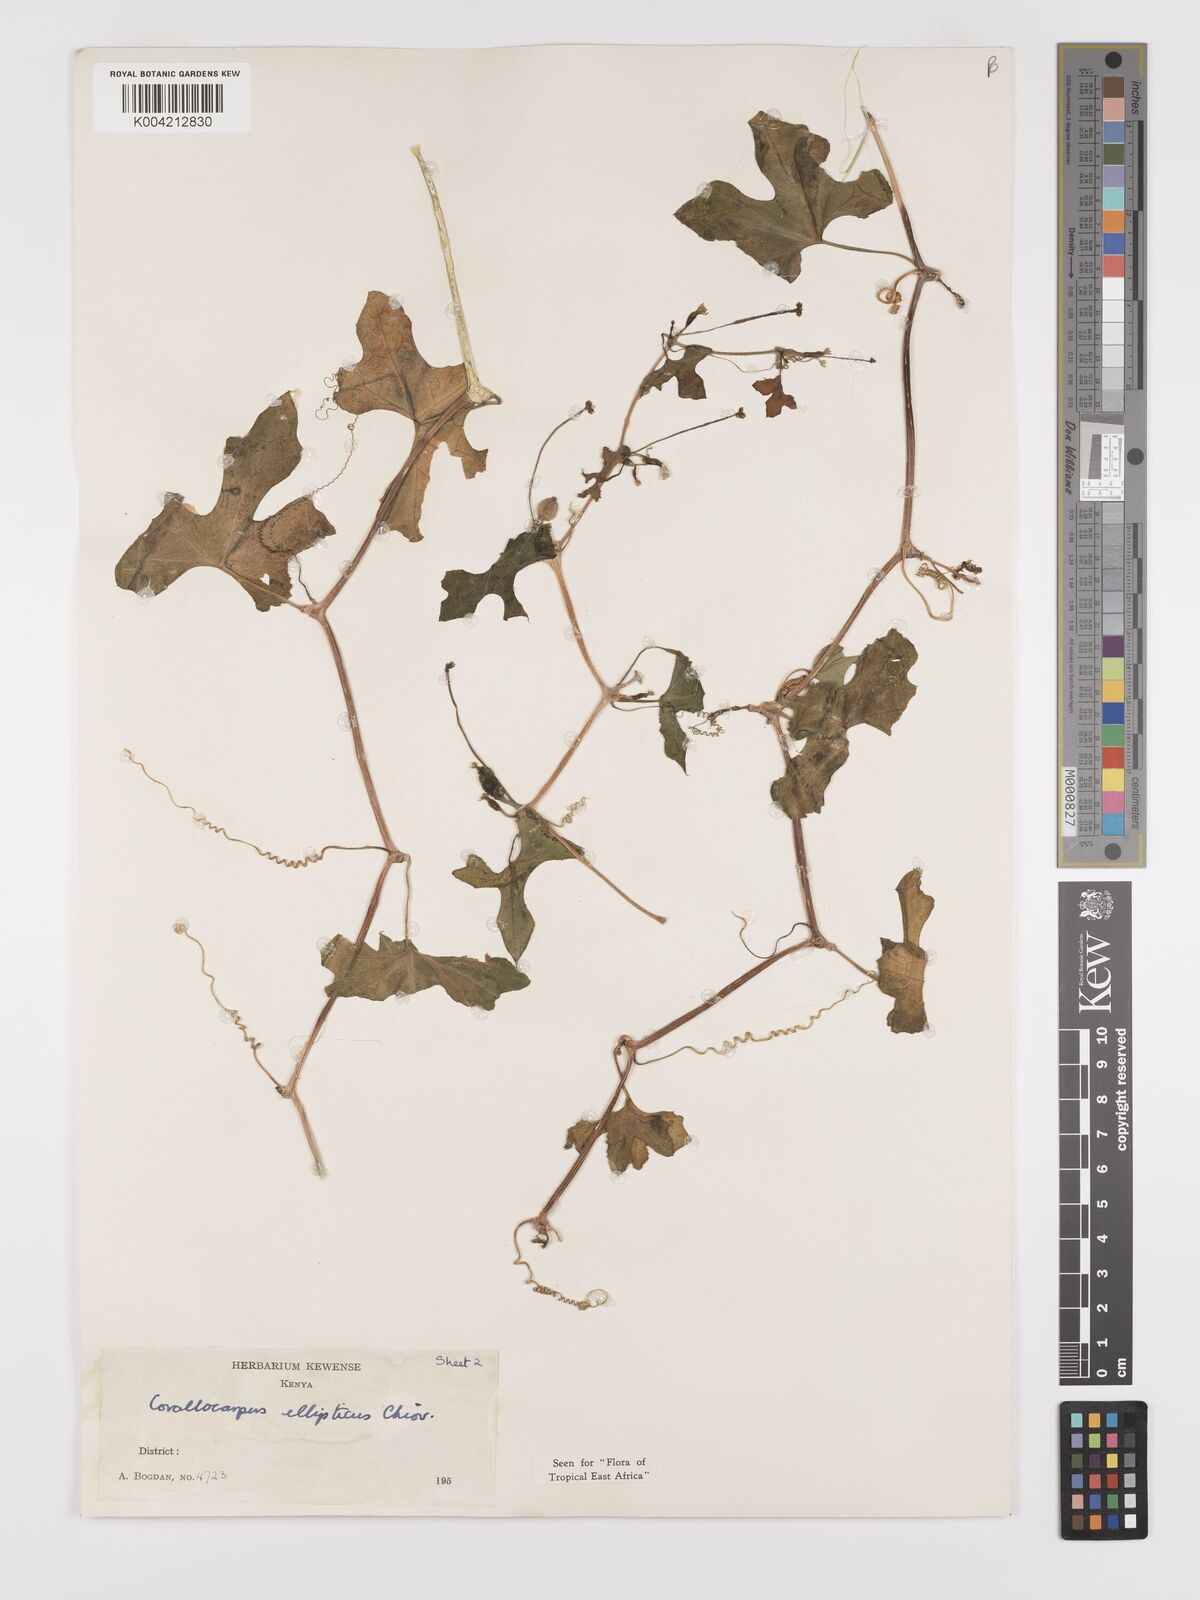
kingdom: Plantae
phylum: Tracheophyta
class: Magnoliopsida
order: Cucurbitales
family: Cucurbitaceae
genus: Corallocarpus
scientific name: Corallocarpus ellipticus
